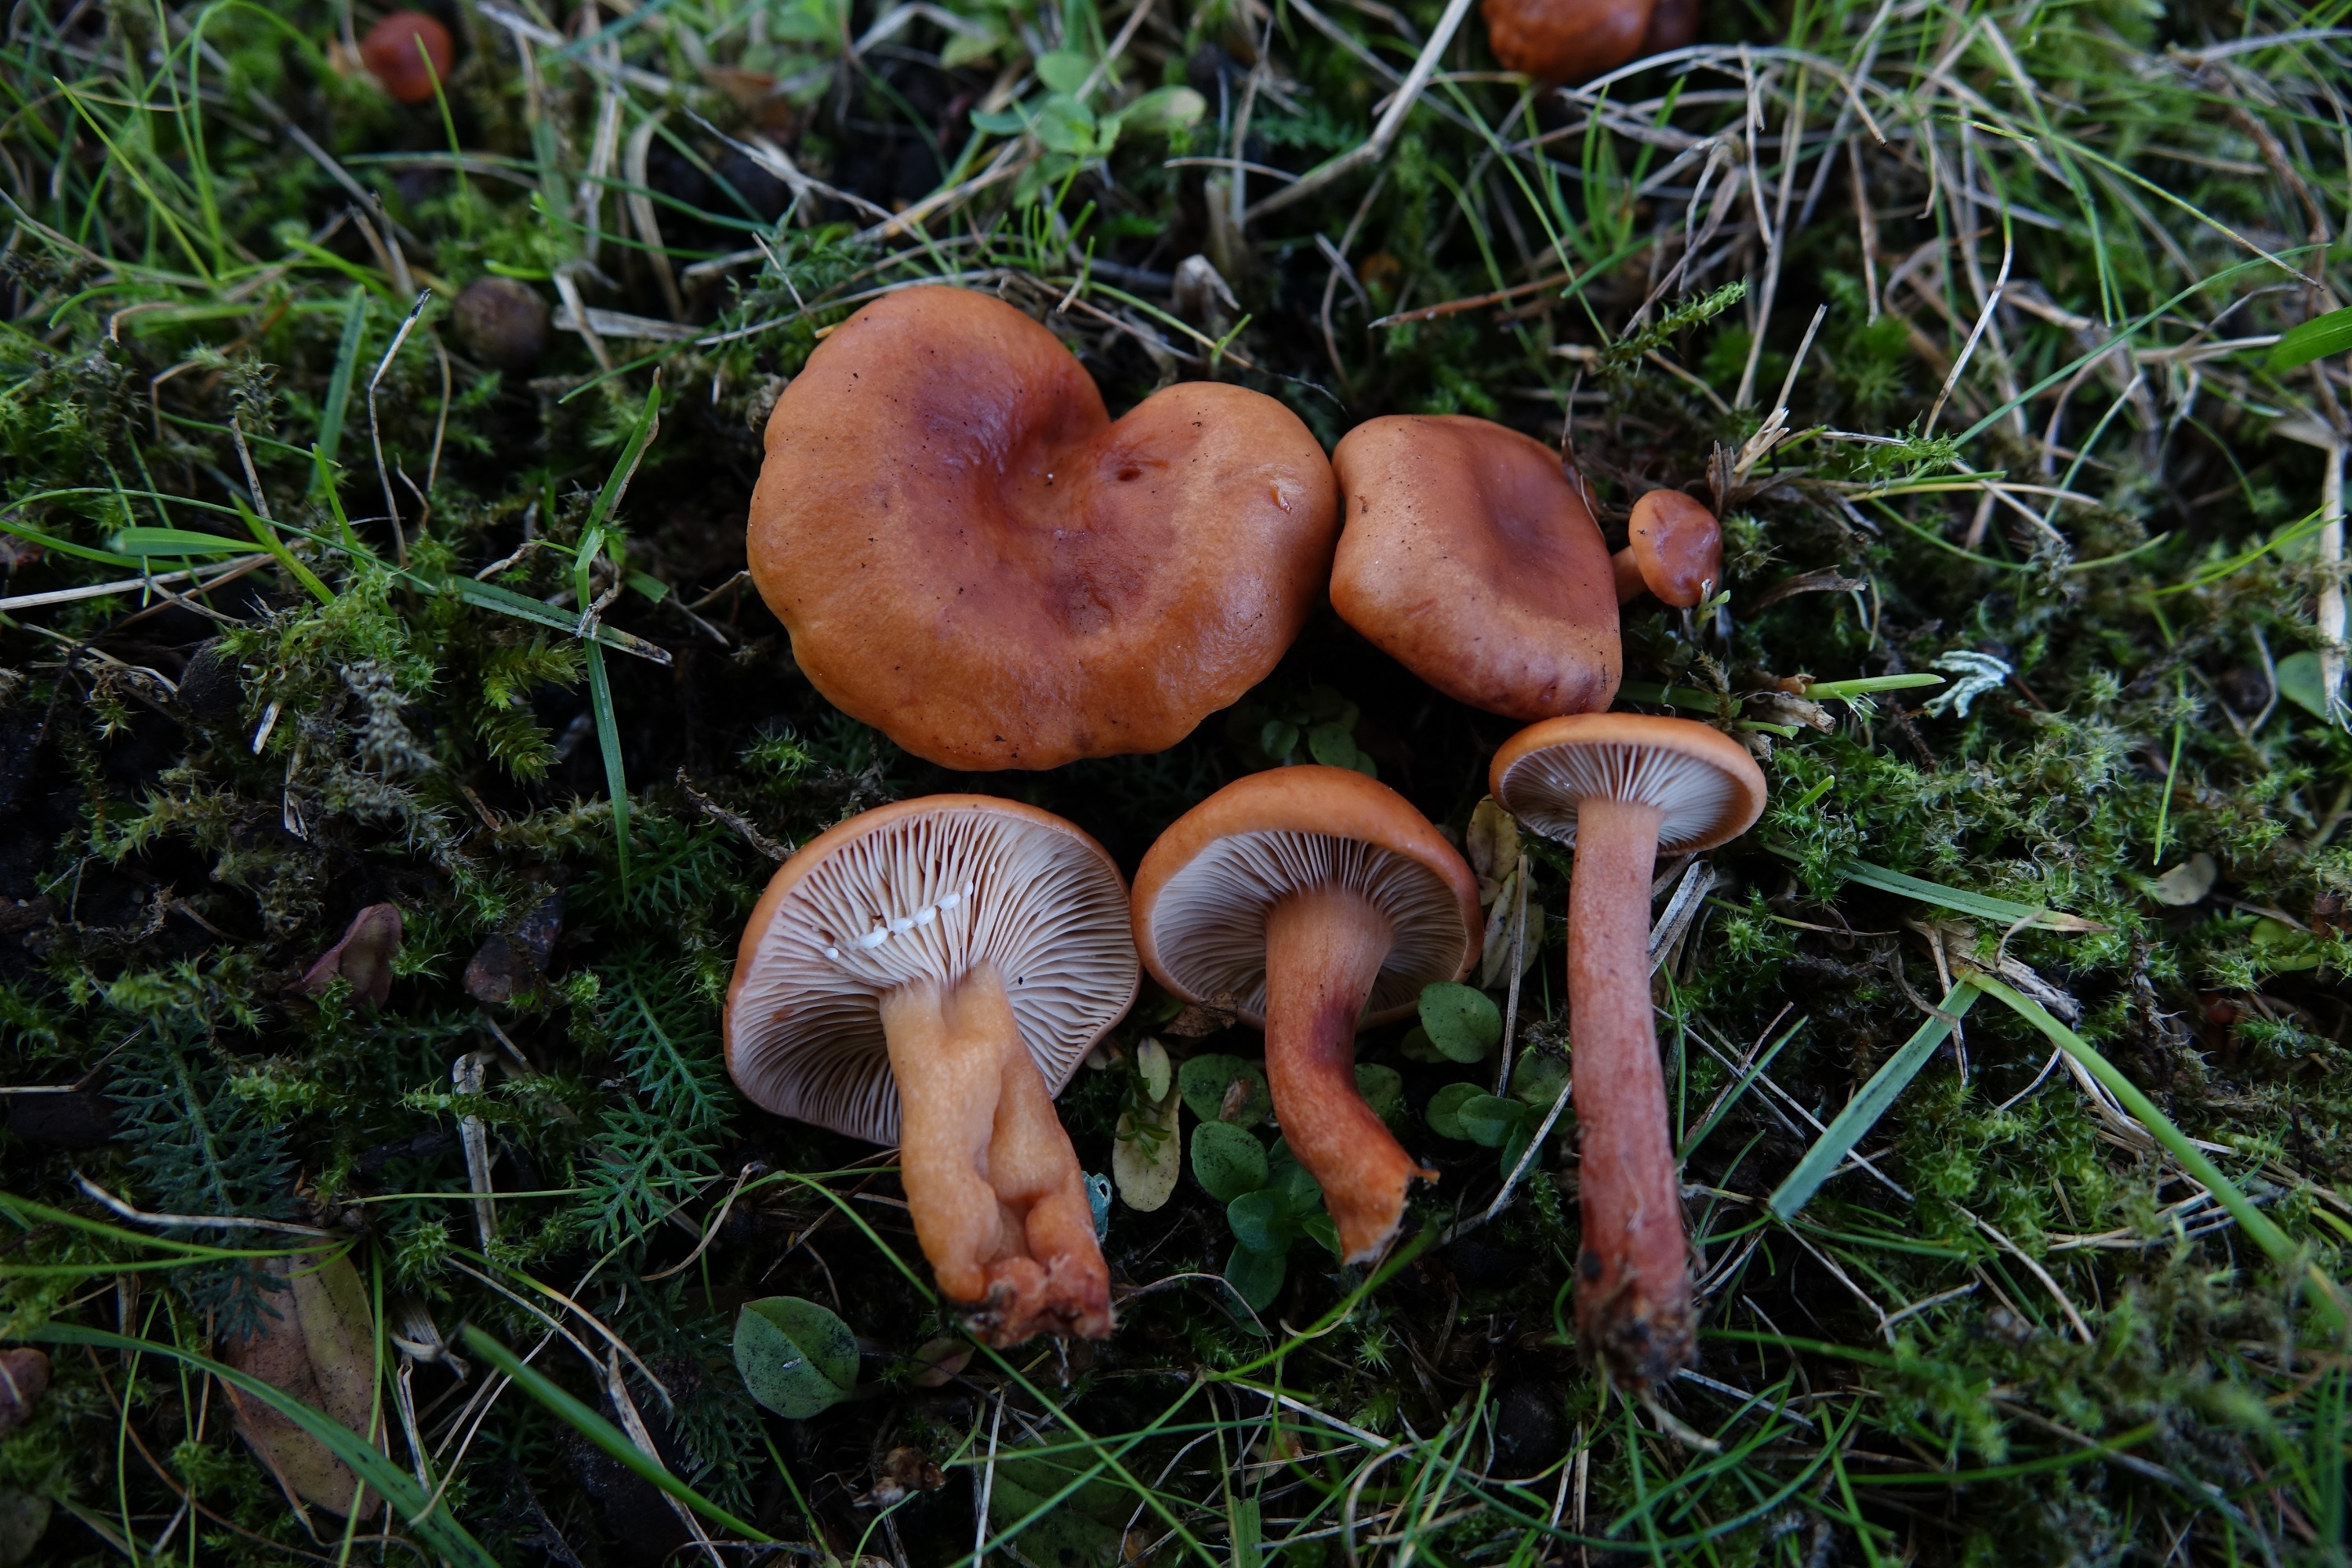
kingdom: Fungi
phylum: Basidiomycota
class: Agaricomycetes
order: Russulales
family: Russulaceae
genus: Lactarius
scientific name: Lactarius fulvissimus
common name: Tawny milkcap
